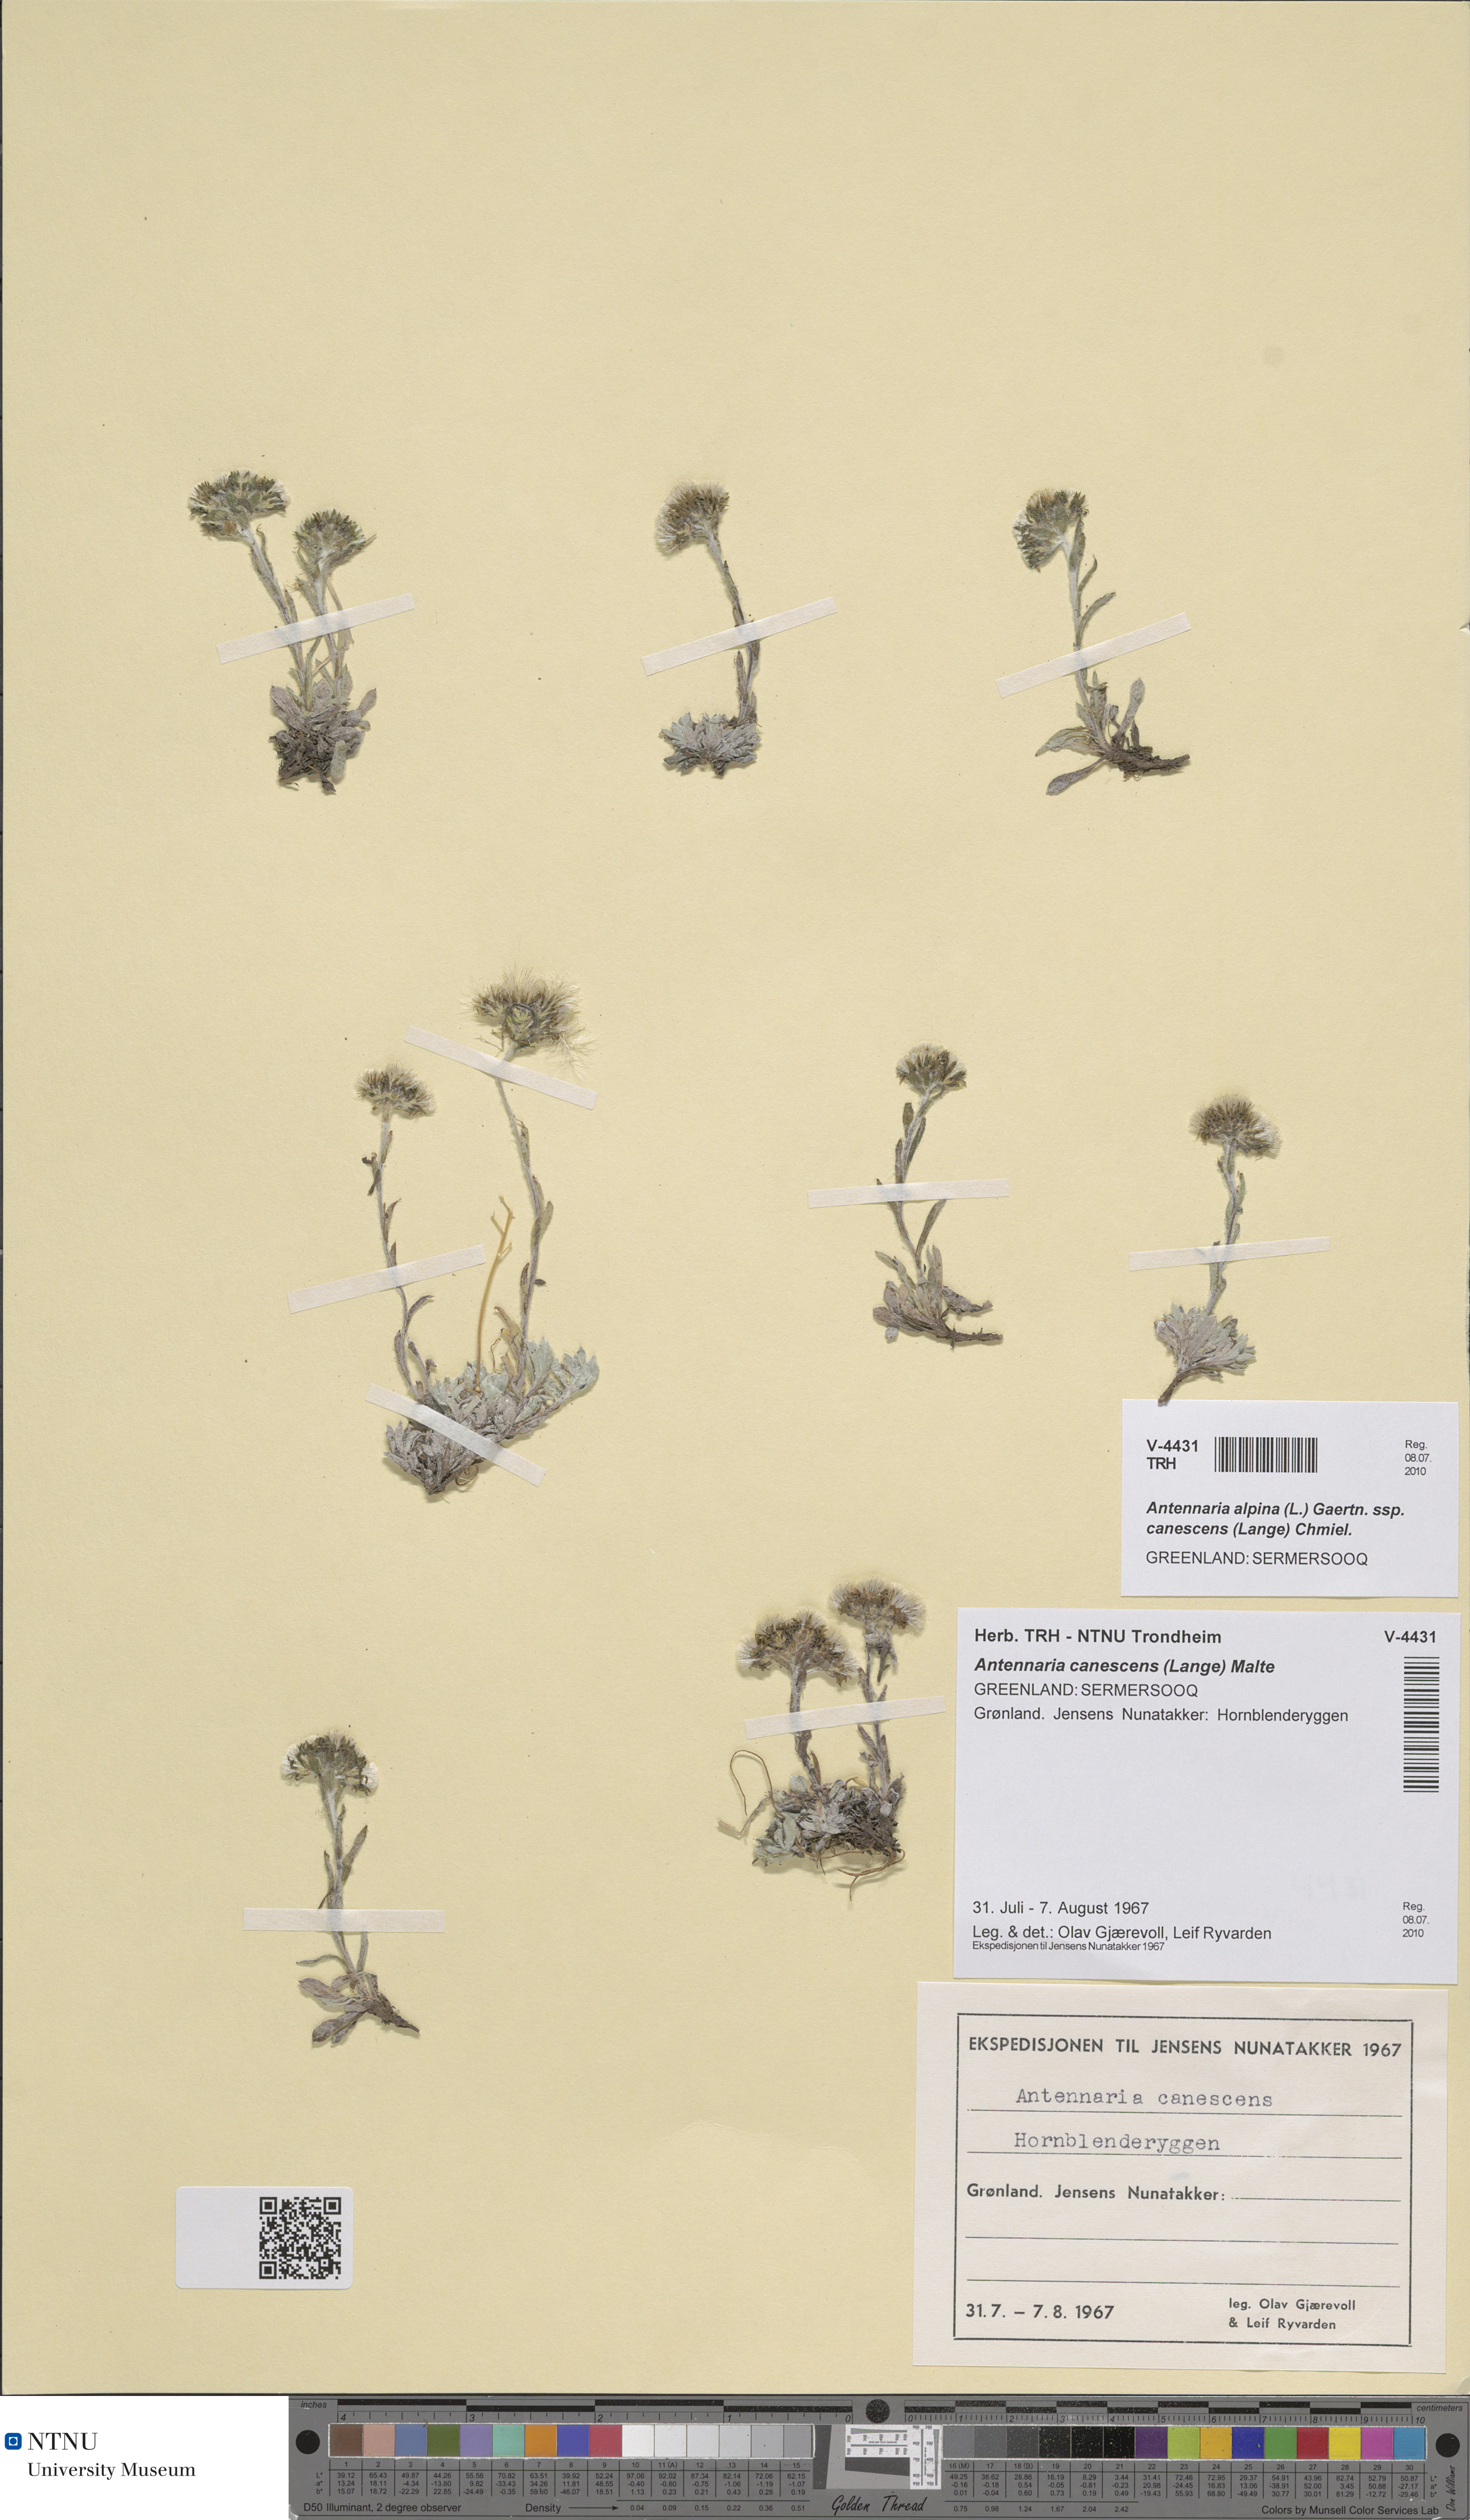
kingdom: Plantae
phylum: Tracheophyta
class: Magnoliopsida
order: Asterales
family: Asteraceae
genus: Antennaria
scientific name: Antennaria canescens
